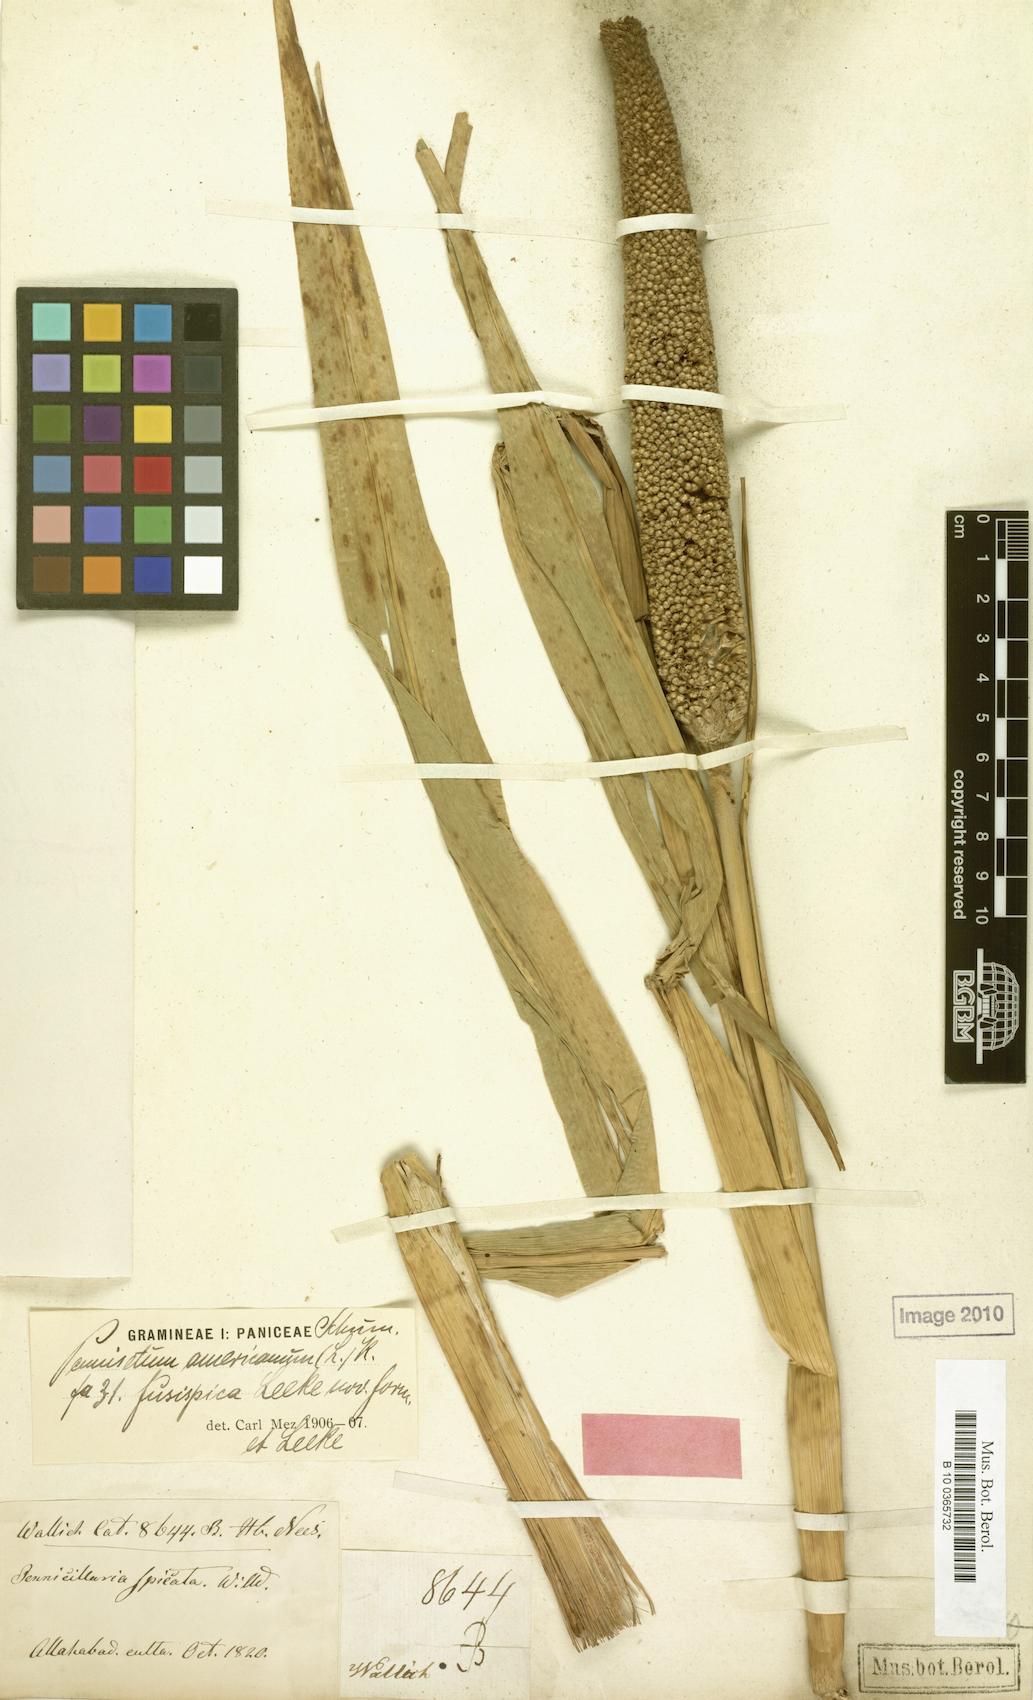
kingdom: Plantae
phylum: Tracheophyta
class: Liliopsida
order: Poales
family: Poaceae
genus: Cenchrus
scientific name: Cenchrus americanus
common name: Pearl millet
